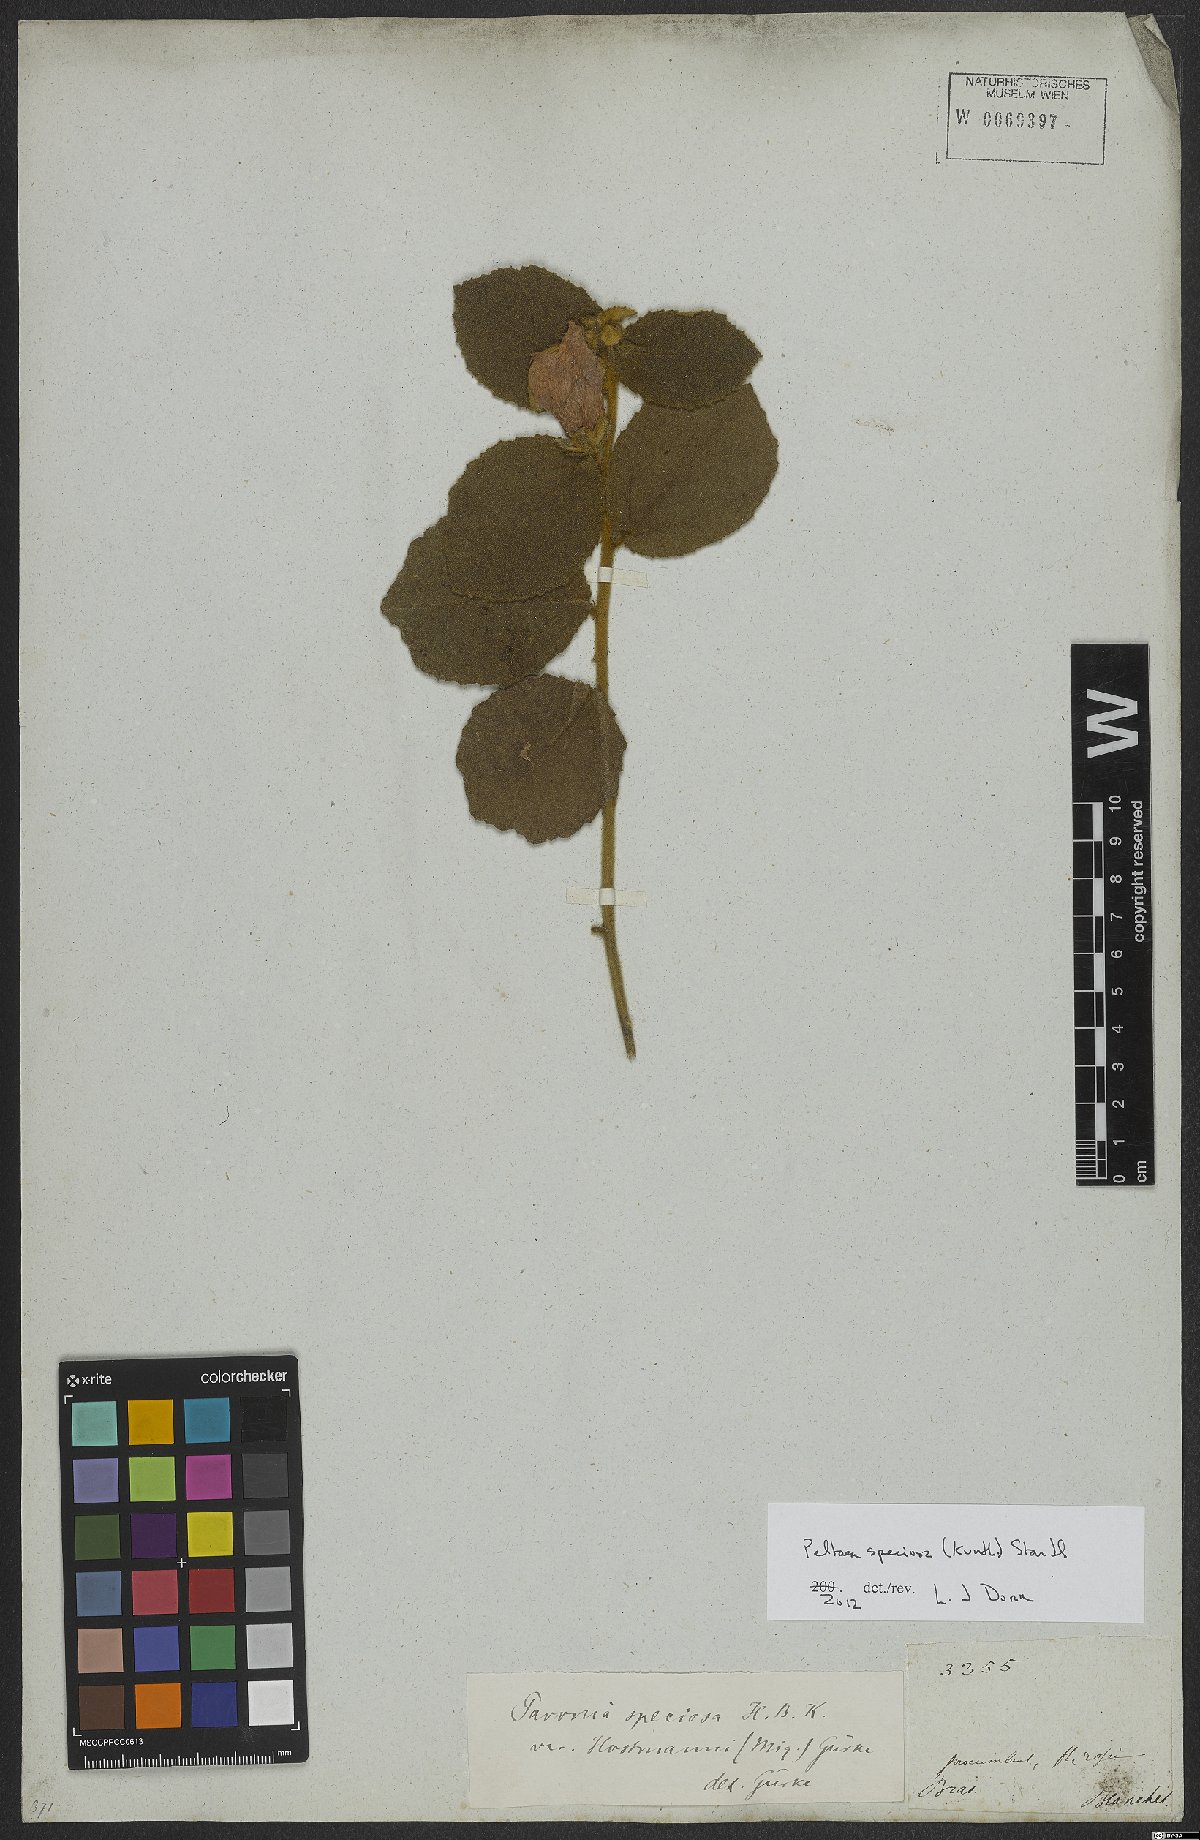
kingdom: Plantae
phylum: Tracheophyta
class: Magnoliopsida
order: Malvales
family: Malvaceae
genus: Peltaea
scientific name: Peltaea speciosa
